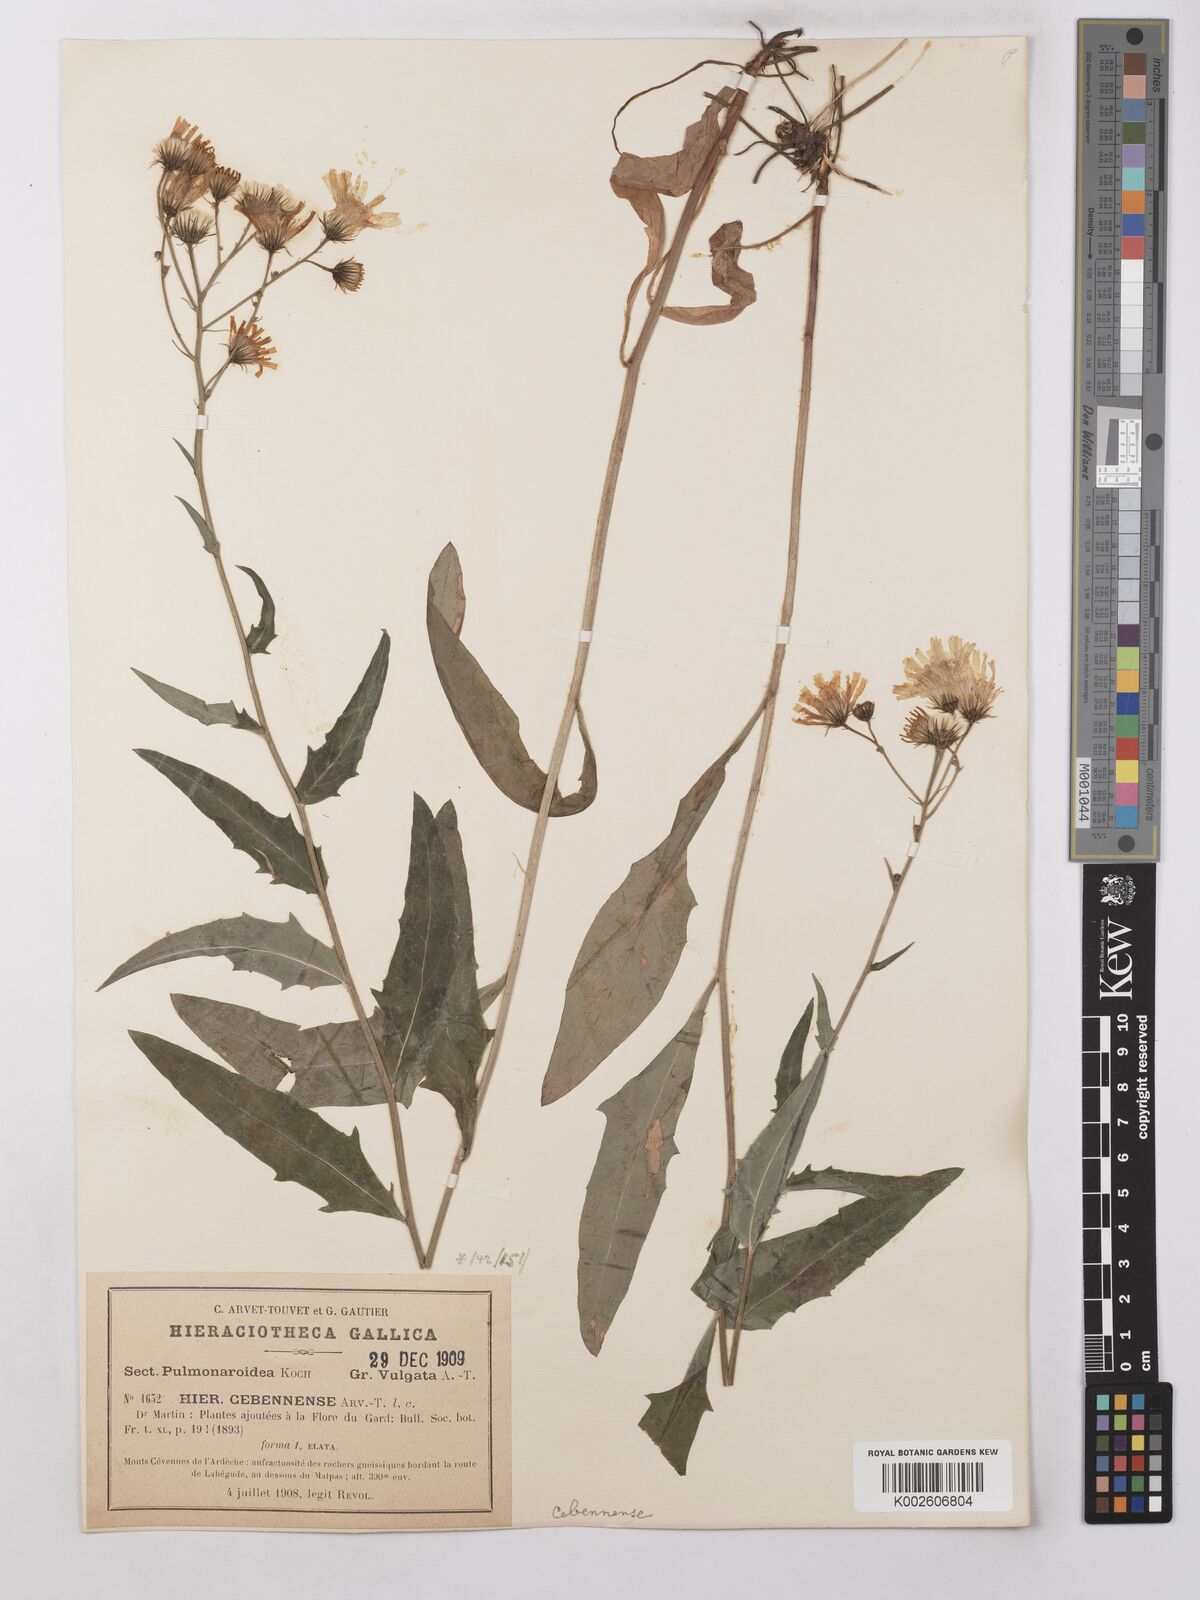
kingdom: Plantae
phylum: Tracheophyta
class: Magnoliopsida
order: Asterales
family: Asteraceae
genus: Hieracium
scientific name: Hieracium lachenalii
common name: Common hawkweed
